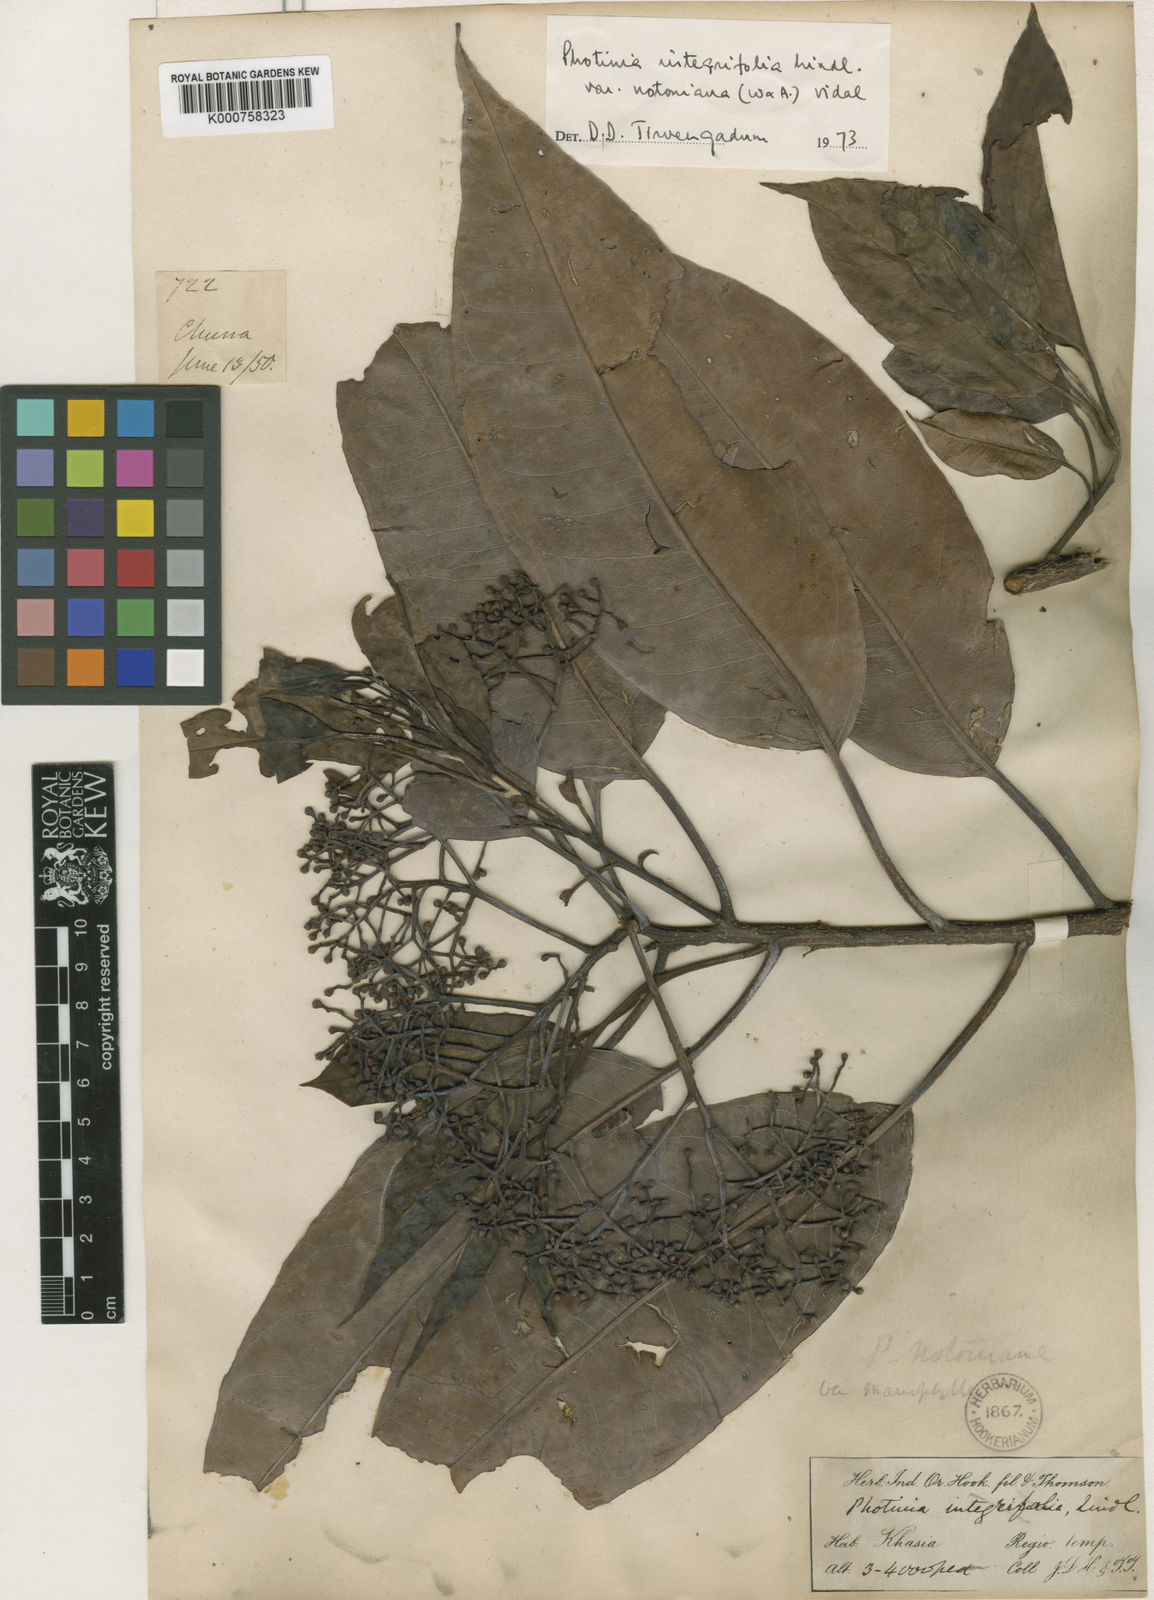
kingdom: Plantae
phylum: Tracheophyta
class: Magnoliopsida
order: Rosales
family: Rosaceae
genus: Photinia
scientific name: Photinia integrifolia
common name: Himalayan chokeberry
